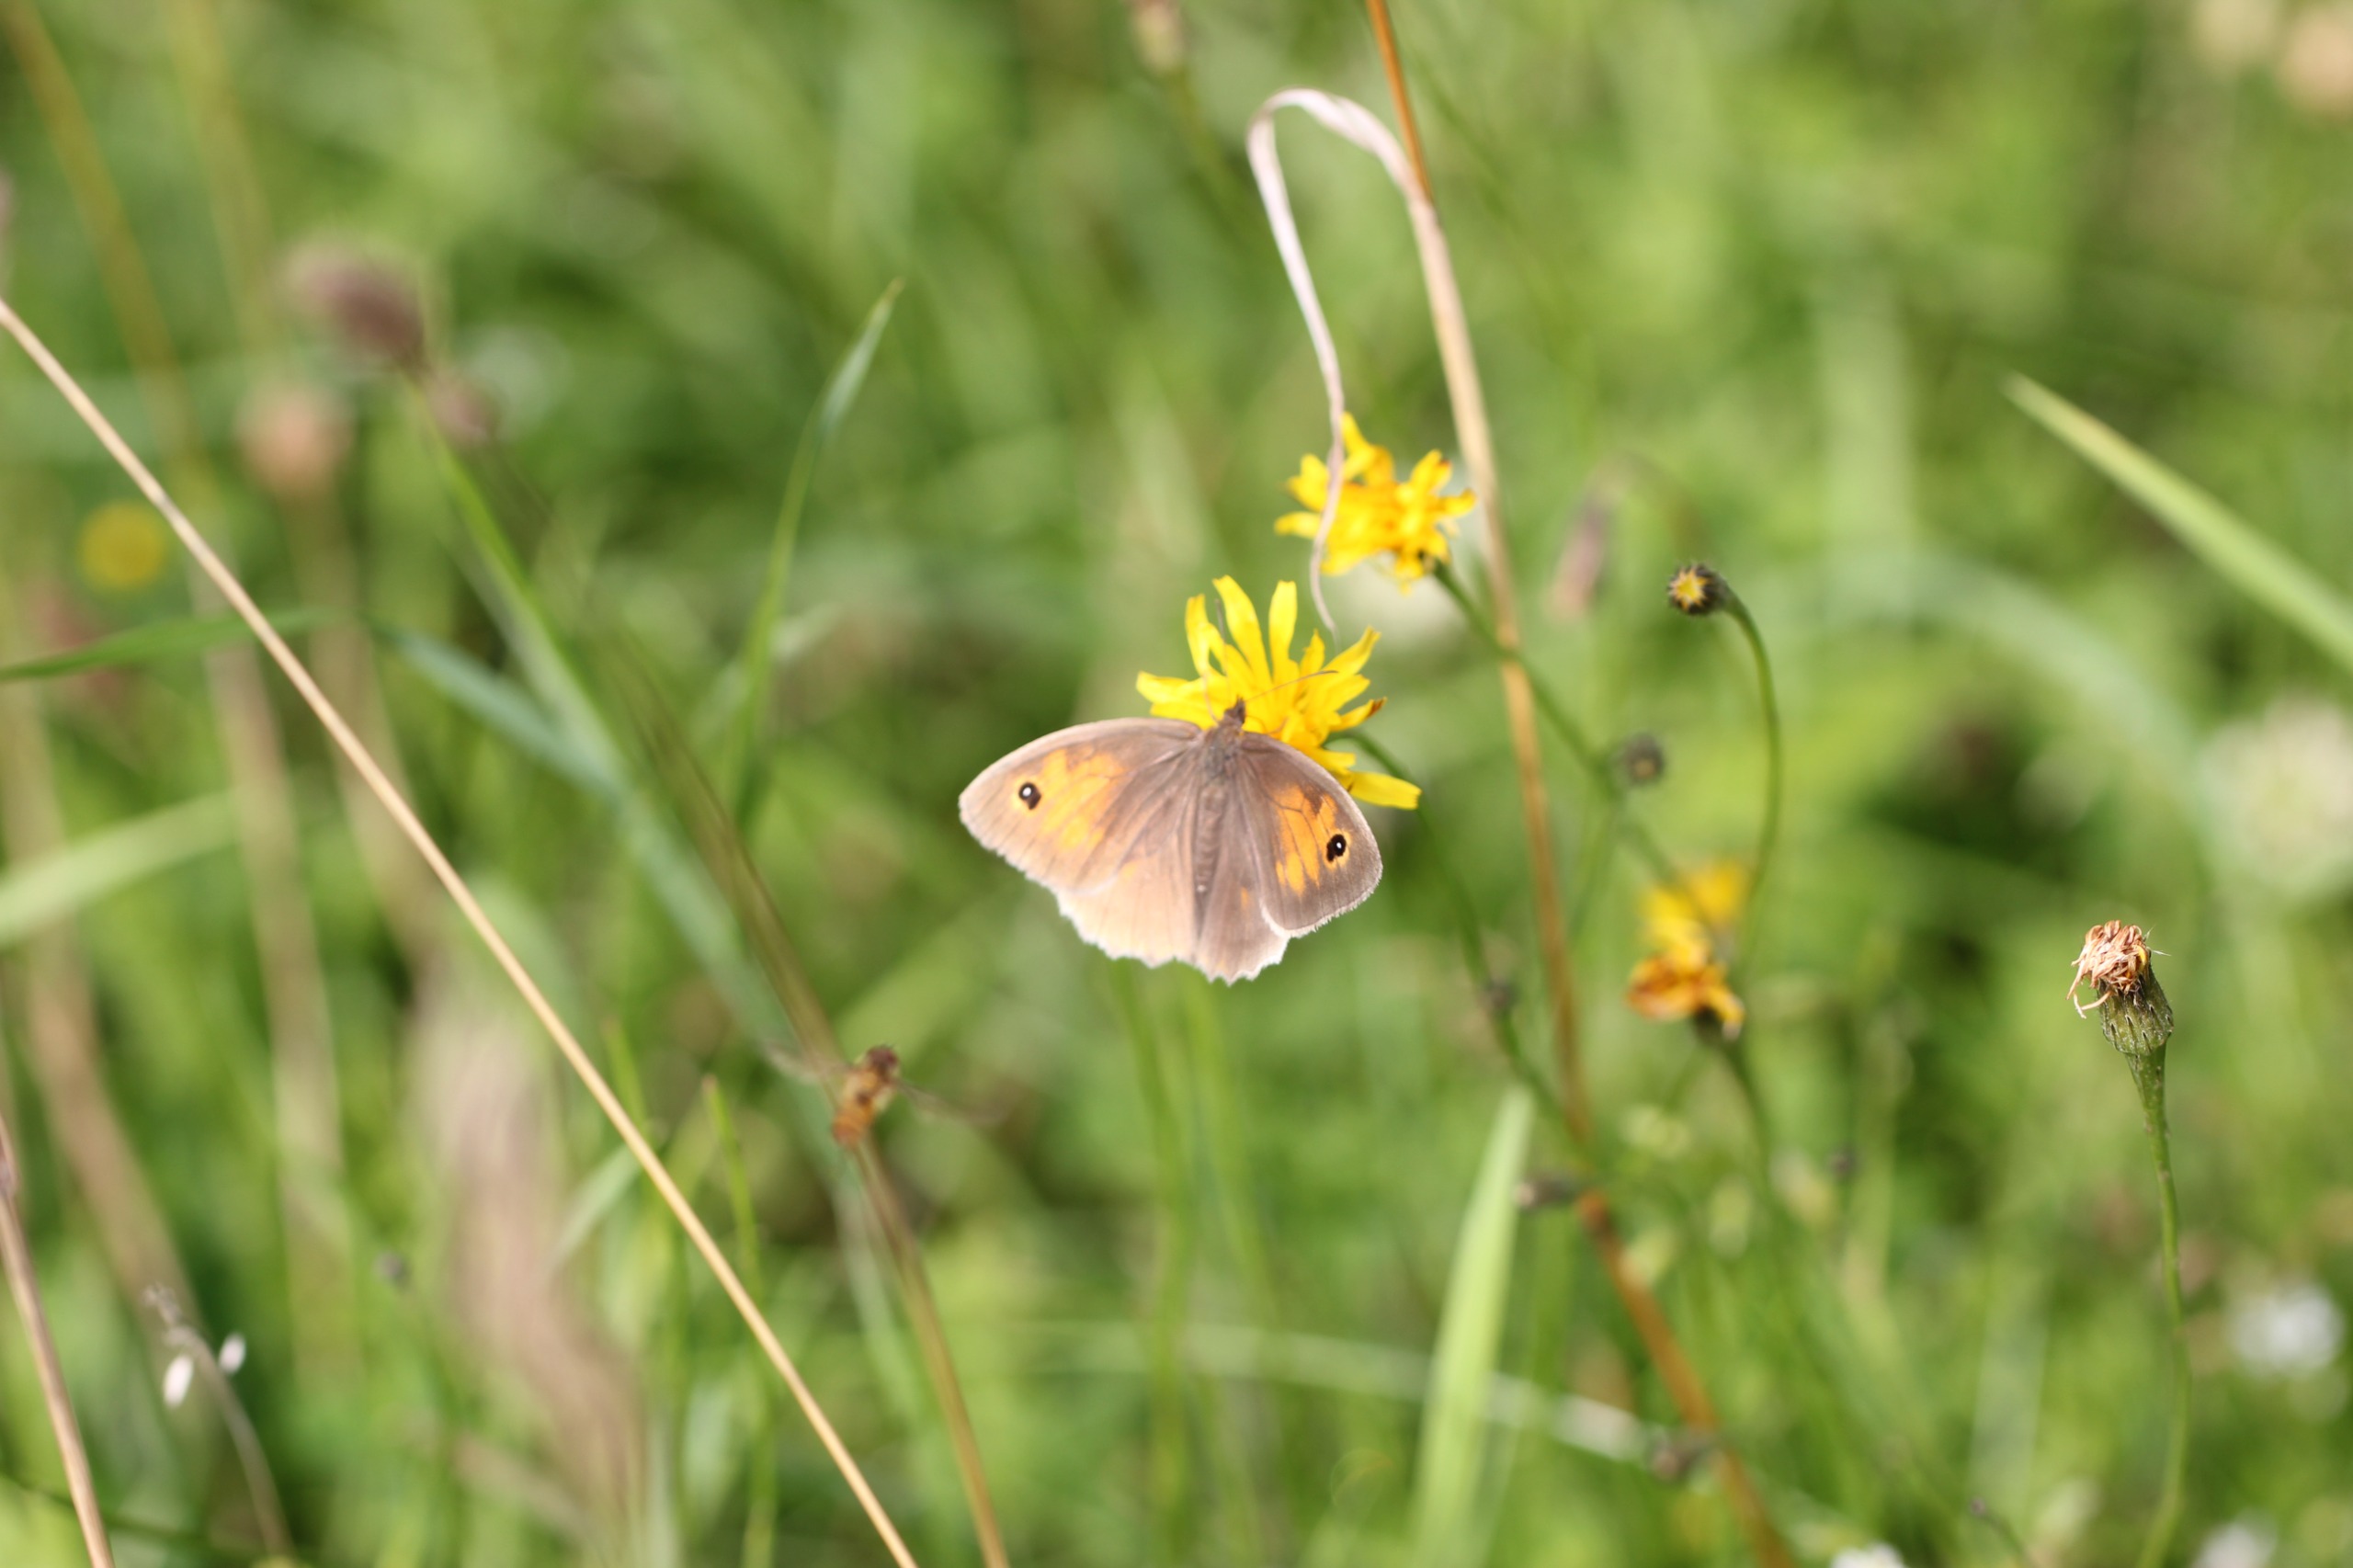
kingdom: Animalia
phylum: Arthropoda
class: Insecta
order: Lepidoptera
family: Nymphalidae
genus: Maniola
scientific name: Maniola jurtina
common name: Græsrandøje
